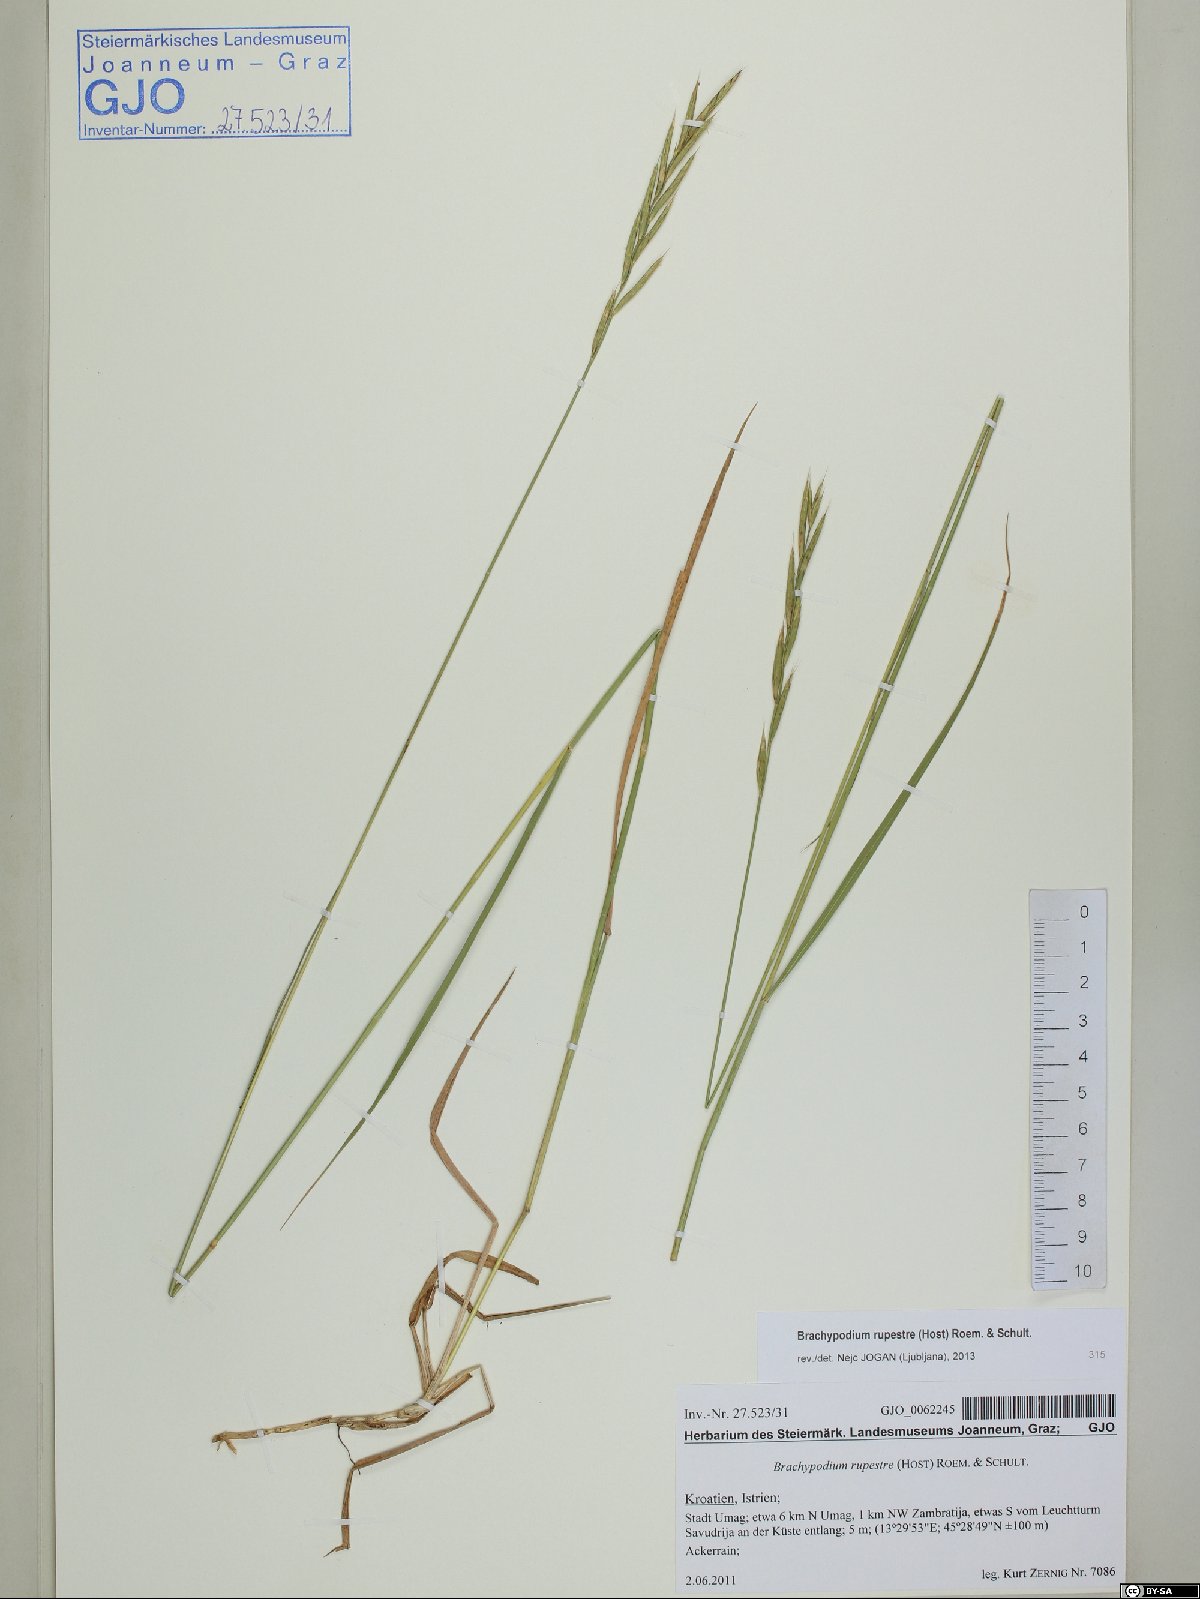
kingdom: Plantae
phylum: Tracheophyta
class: Liliopsida
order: Poales
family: Poaceae
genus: Brachypodium
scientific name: Brachypodium pinnatum
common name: Tor grass
